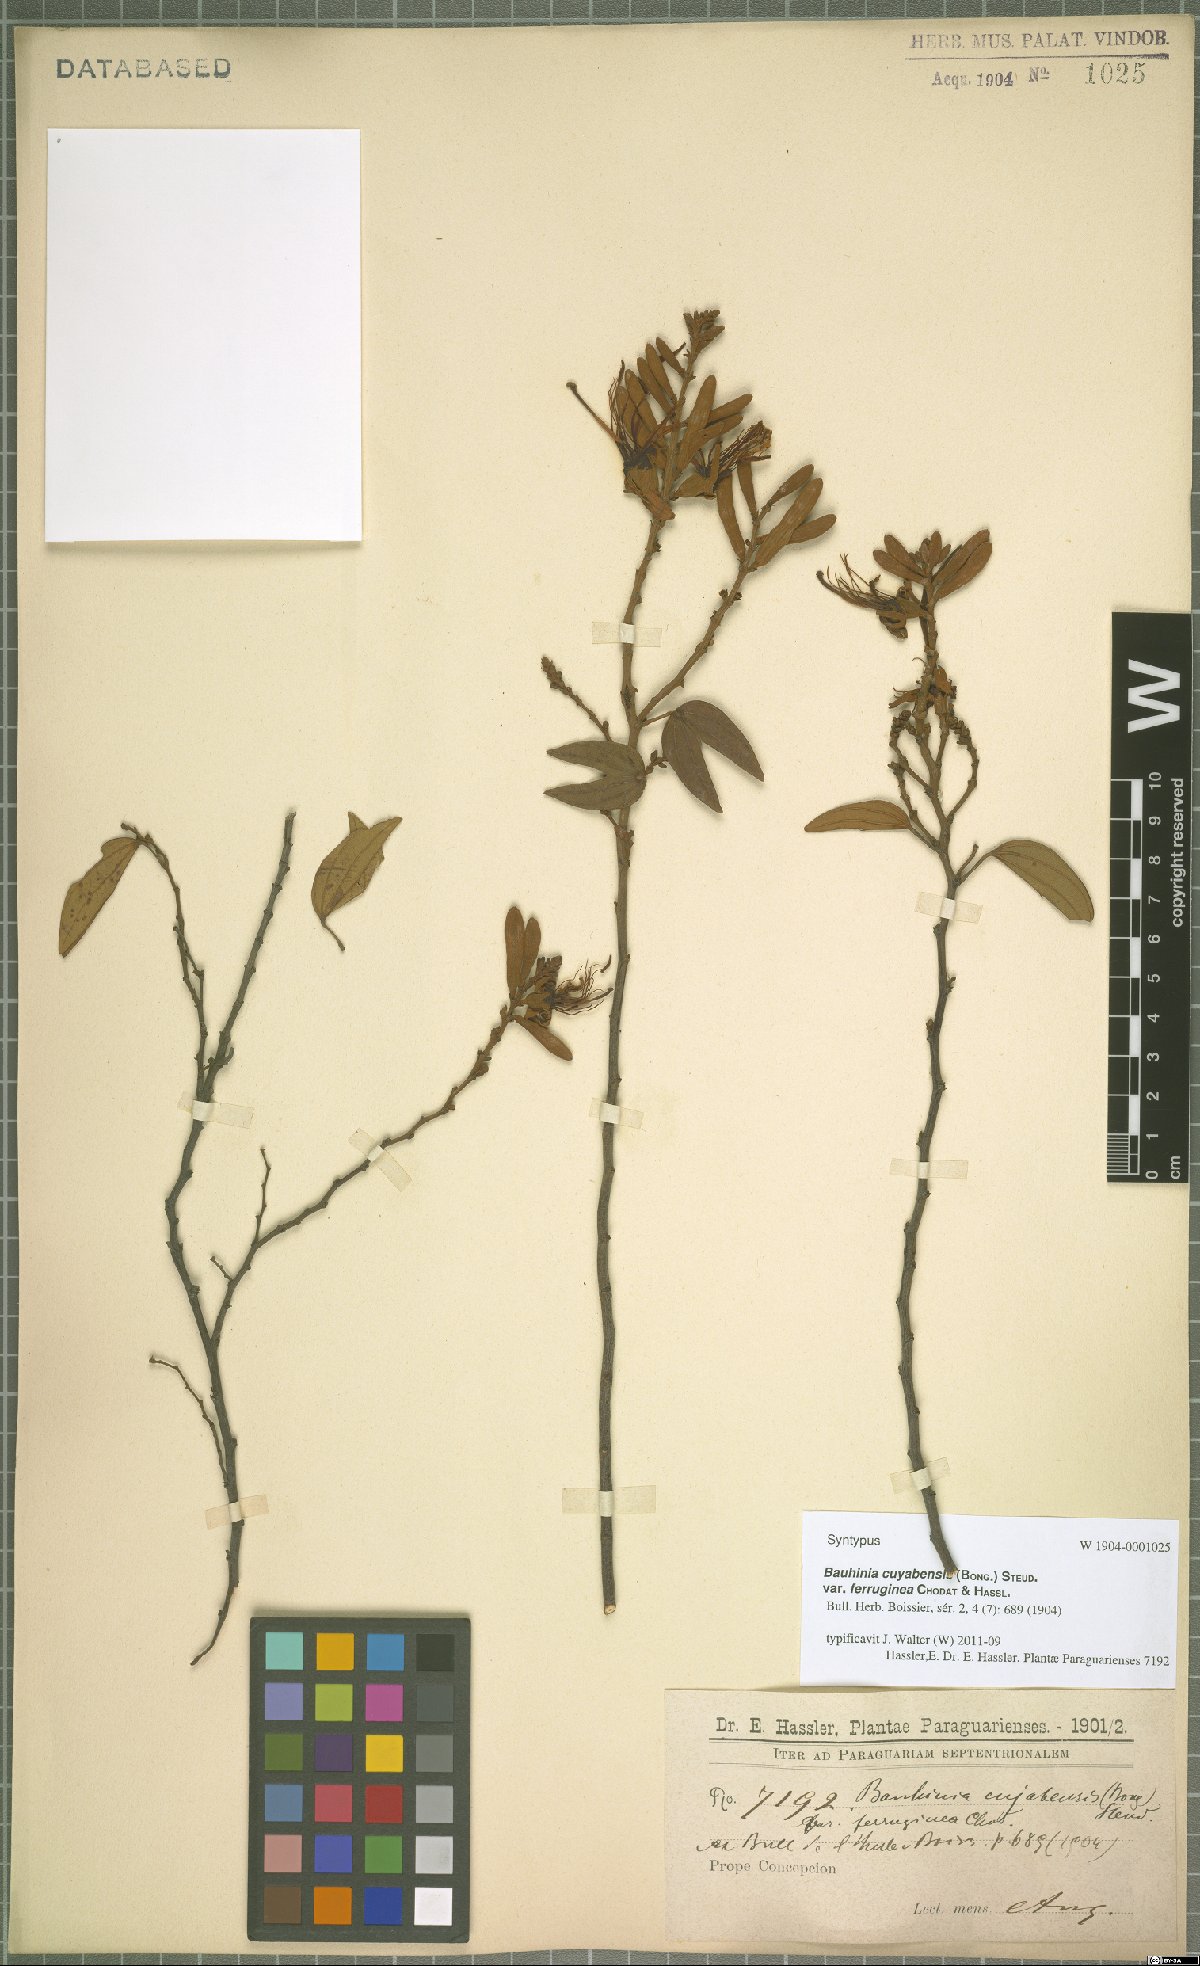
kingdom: Plantae
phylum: Tracheophyta
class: Magnoliopsida
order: Fabales
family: Fabaceae
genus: Bauhinia
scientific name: Bauhinia ungulata
